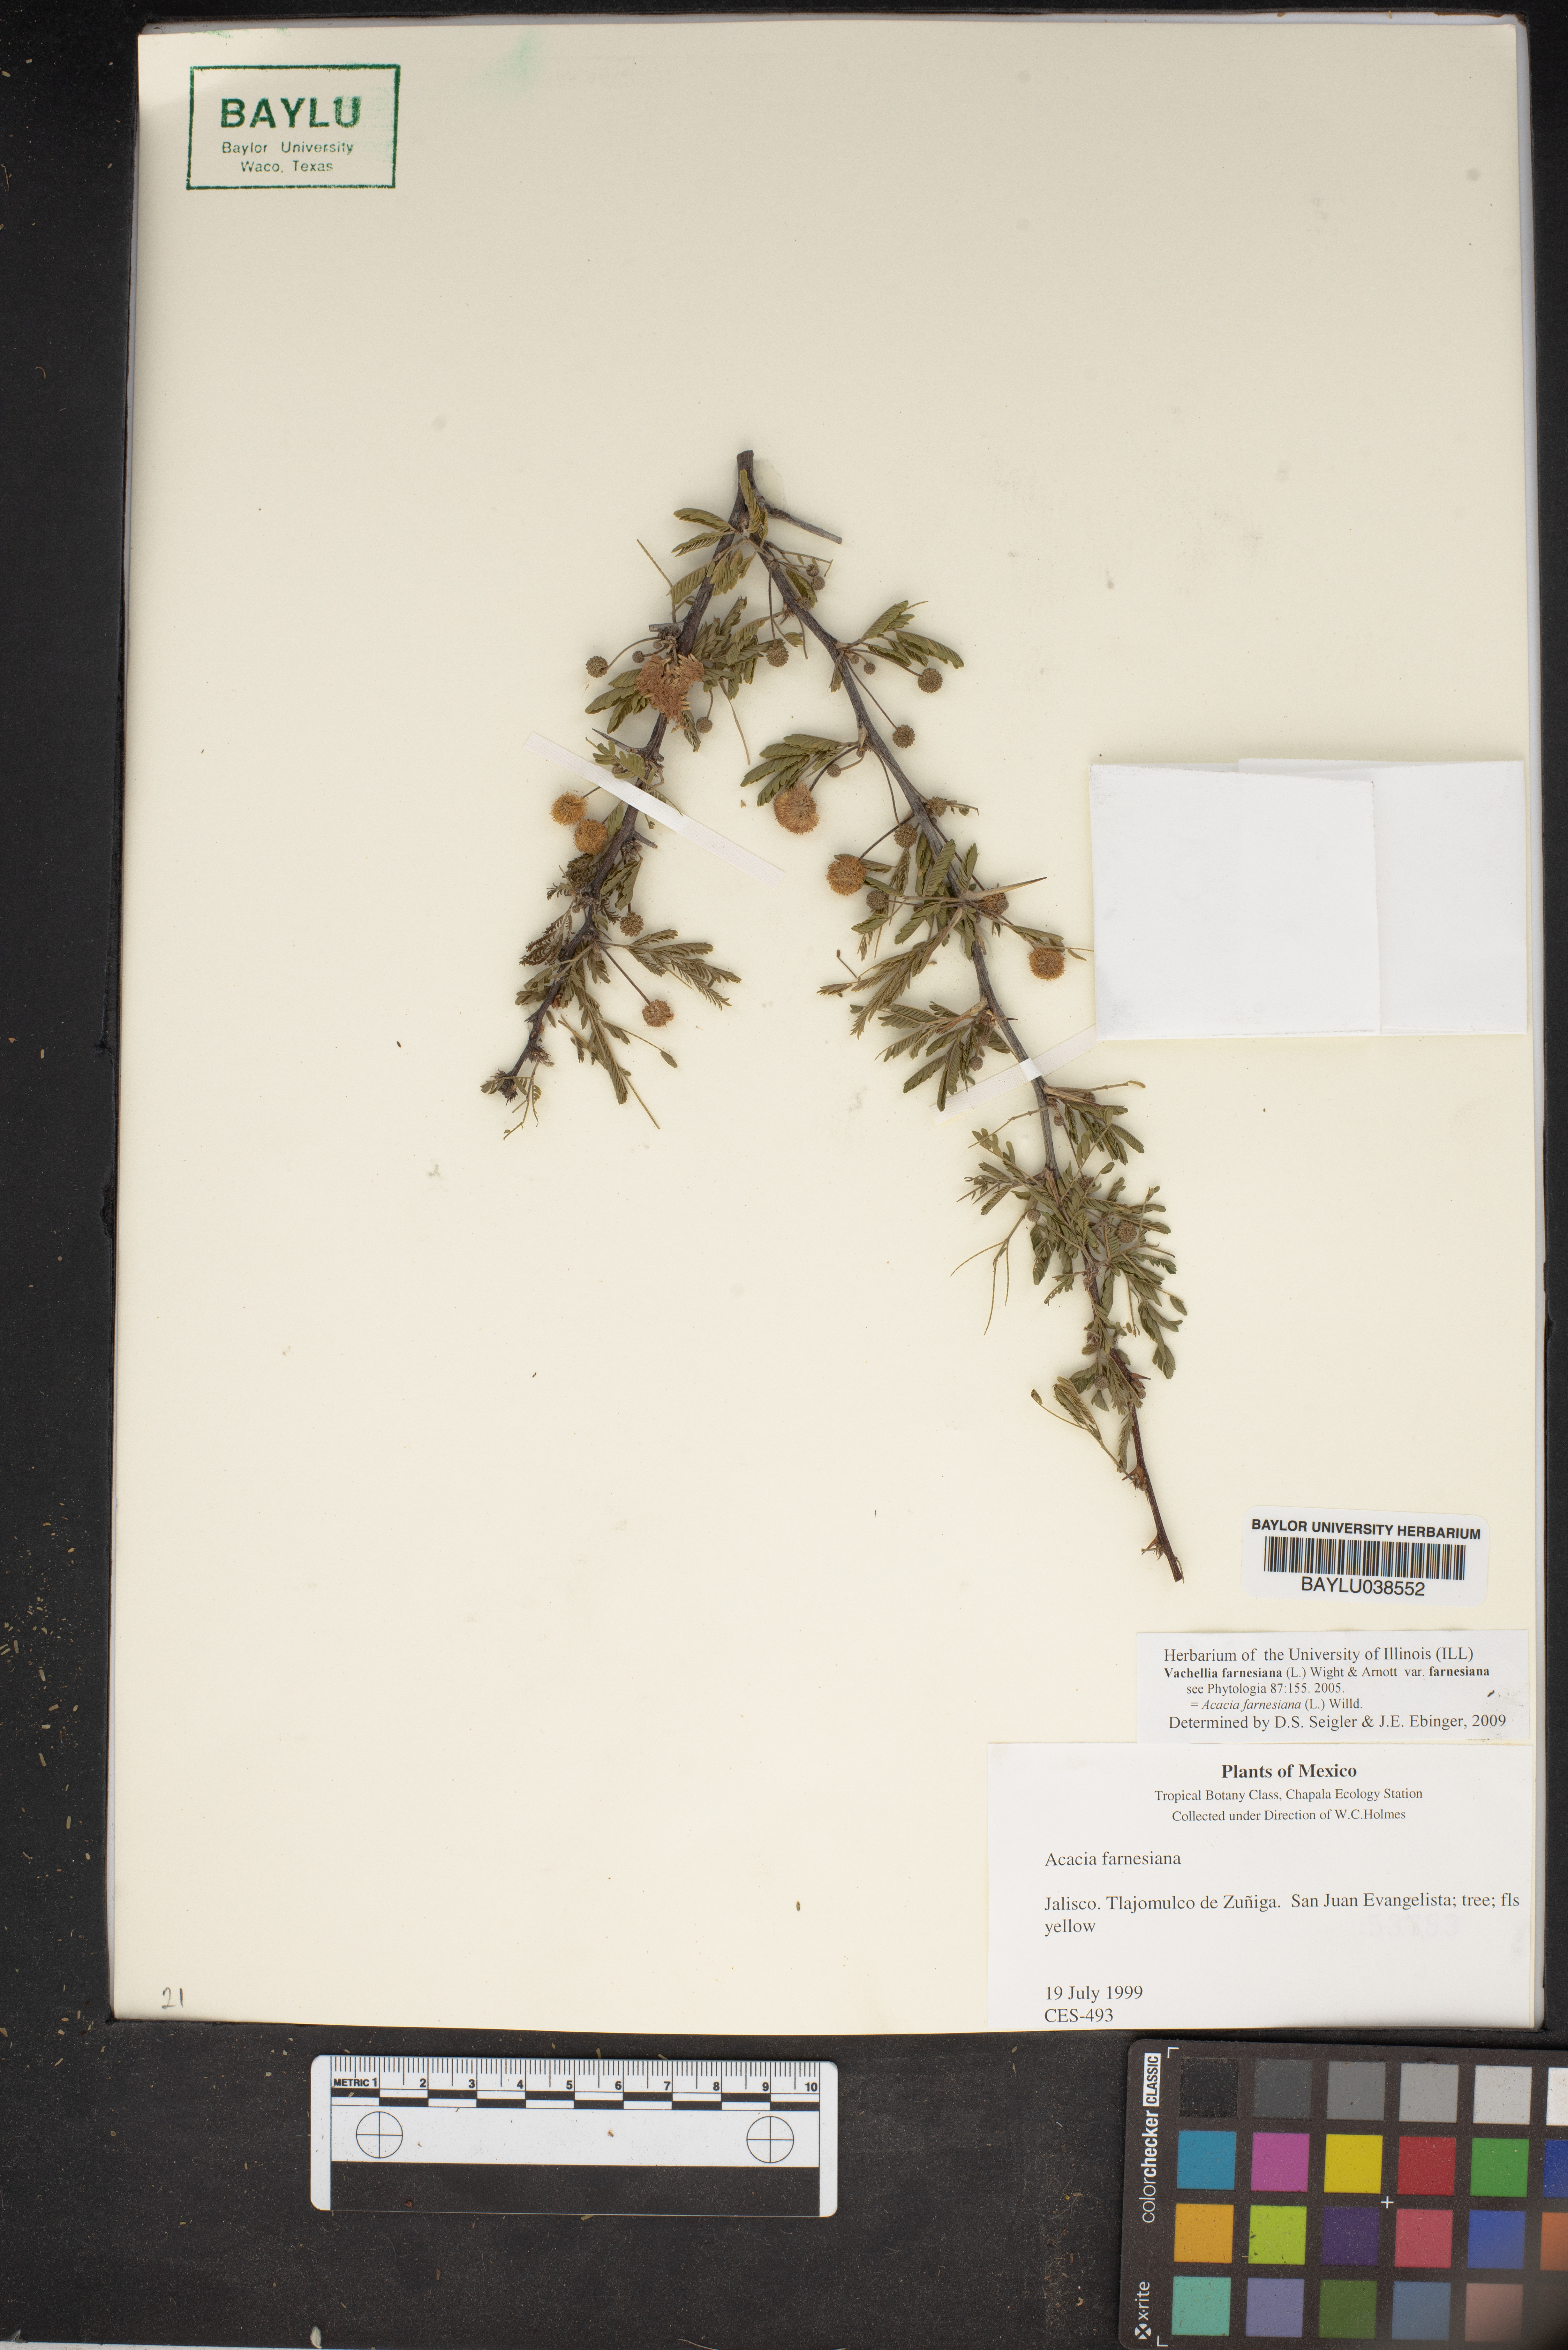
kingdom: Plantae
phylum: Tracheophyta
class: Magnoliopsida
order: Fabales
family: Fabaceae
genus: Vachellia
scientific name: Vachellia farnesiana
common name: Sweet acacia
